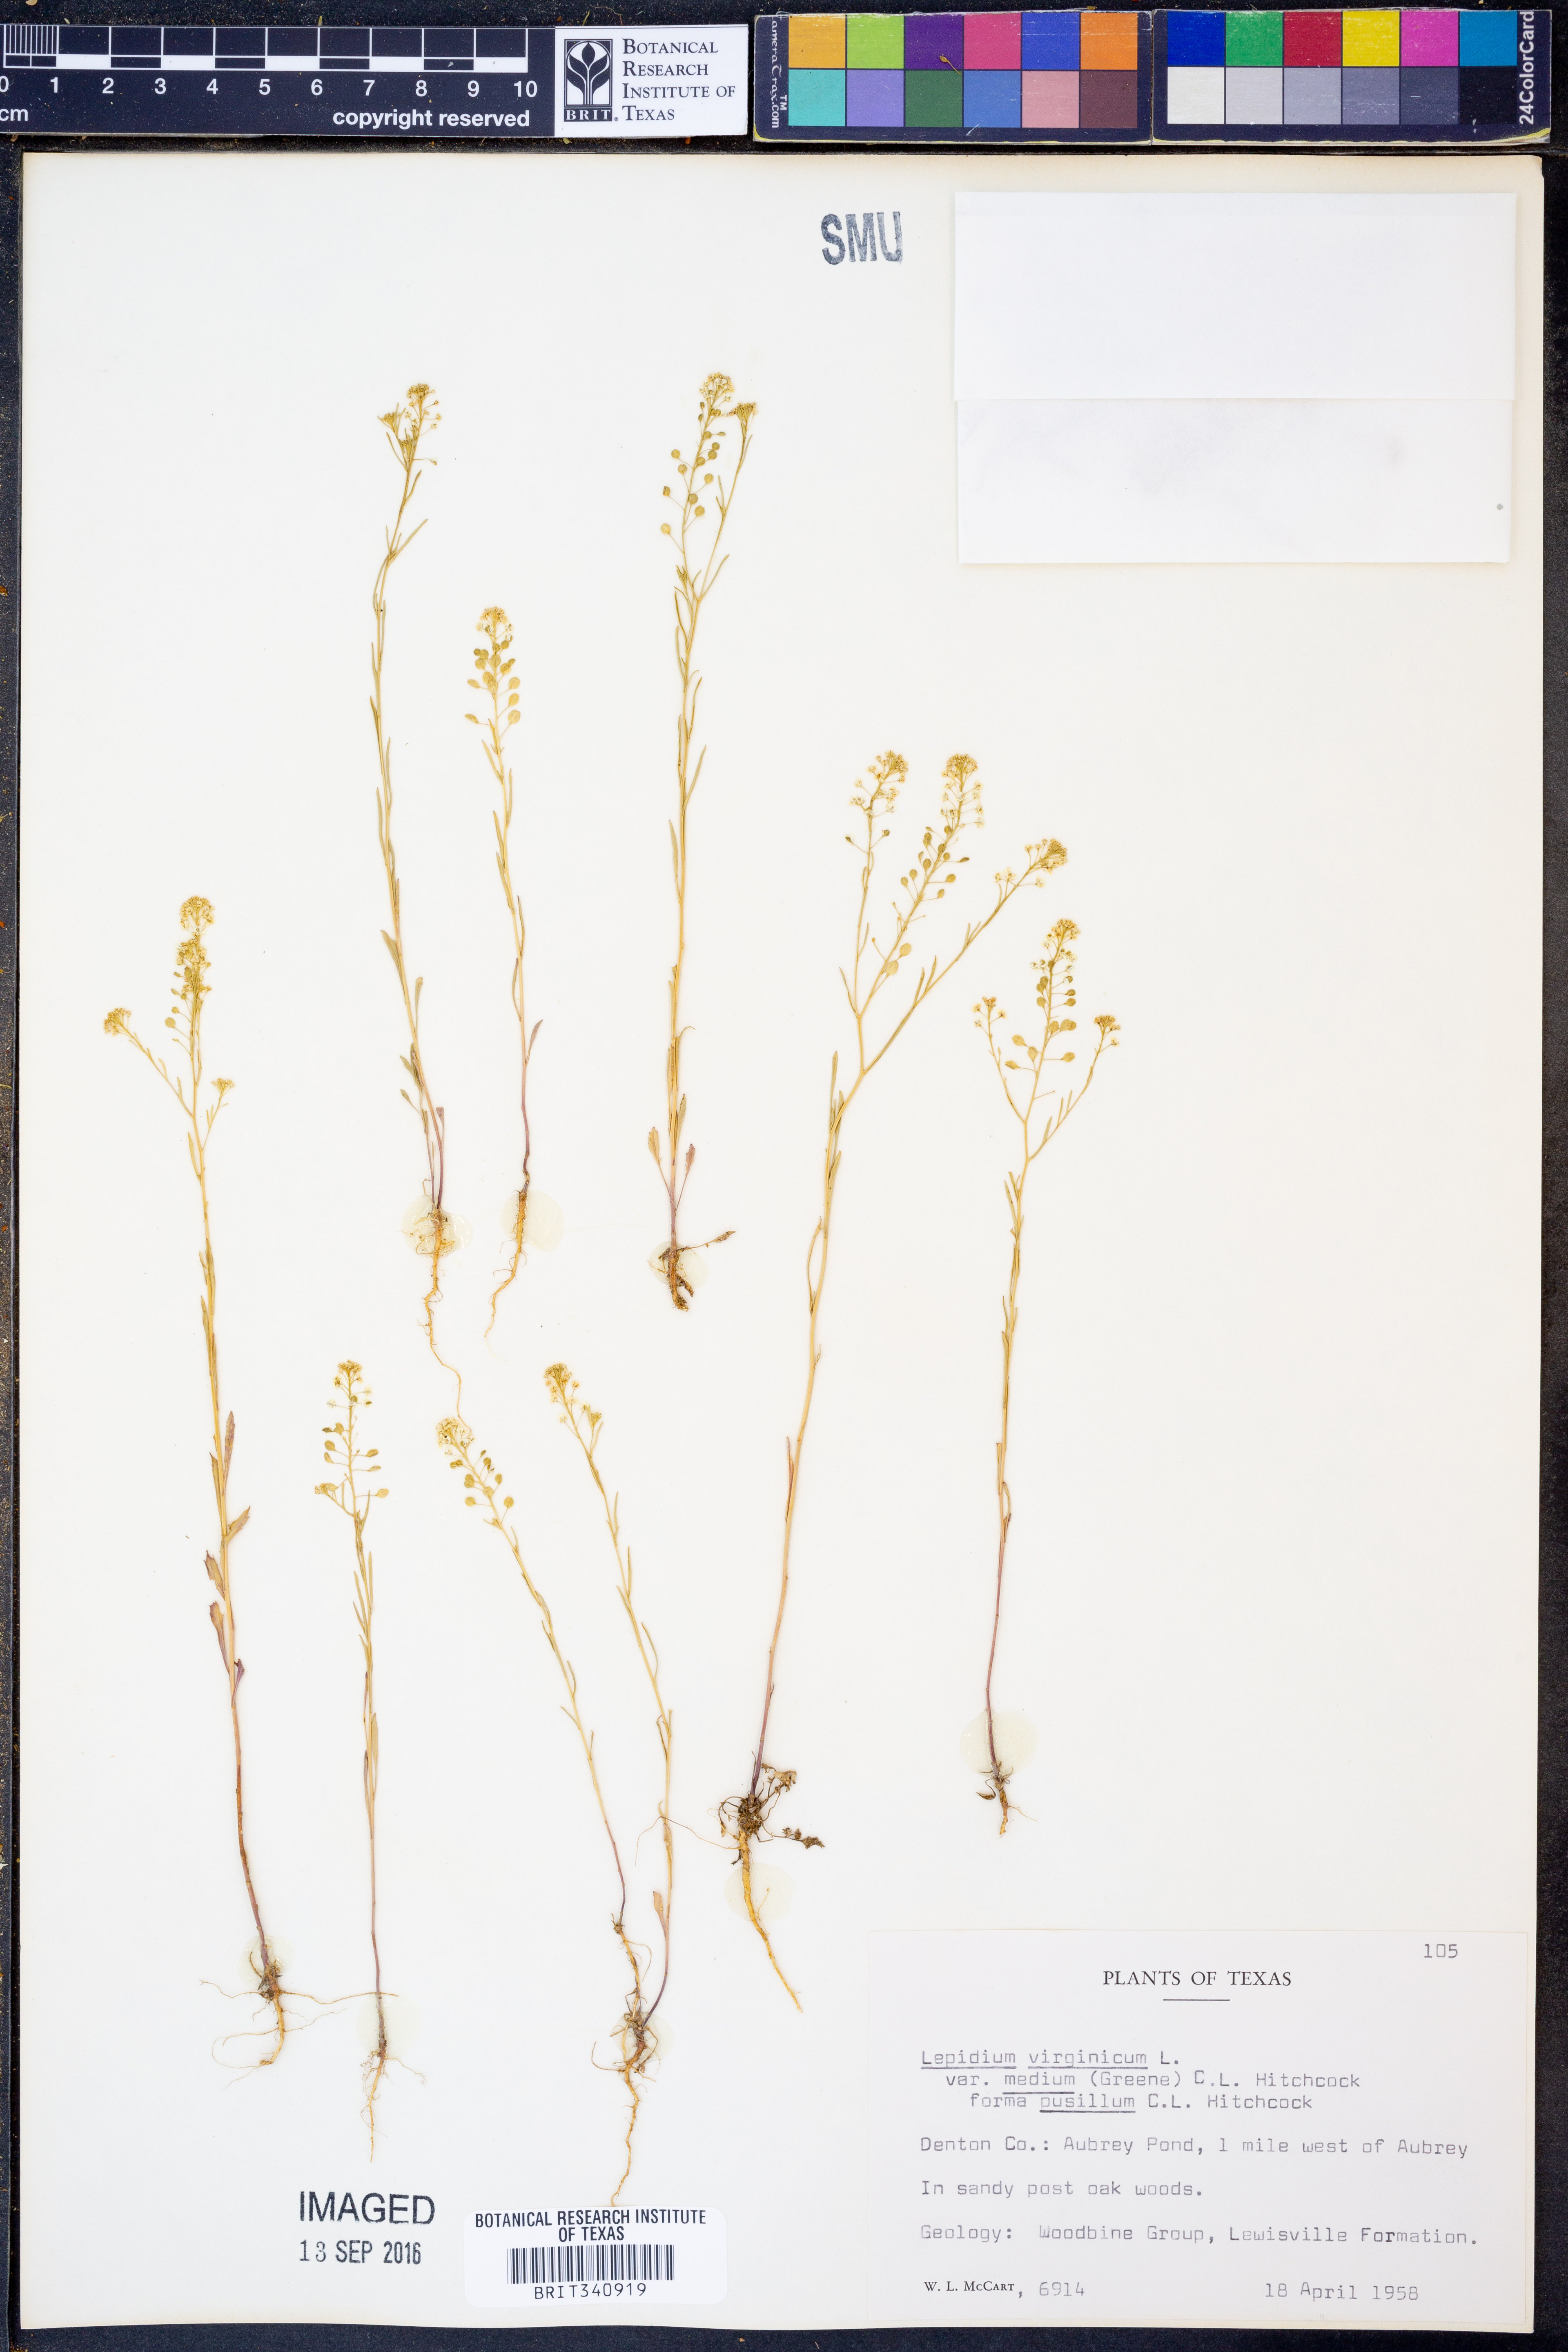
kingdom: Plantae
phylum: Tracheophyta
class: Magnoliopsida
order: Brassicales
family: Brassicaceae
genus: Lepidium
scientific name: Lepidium virginicum
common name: Least pepperwort
